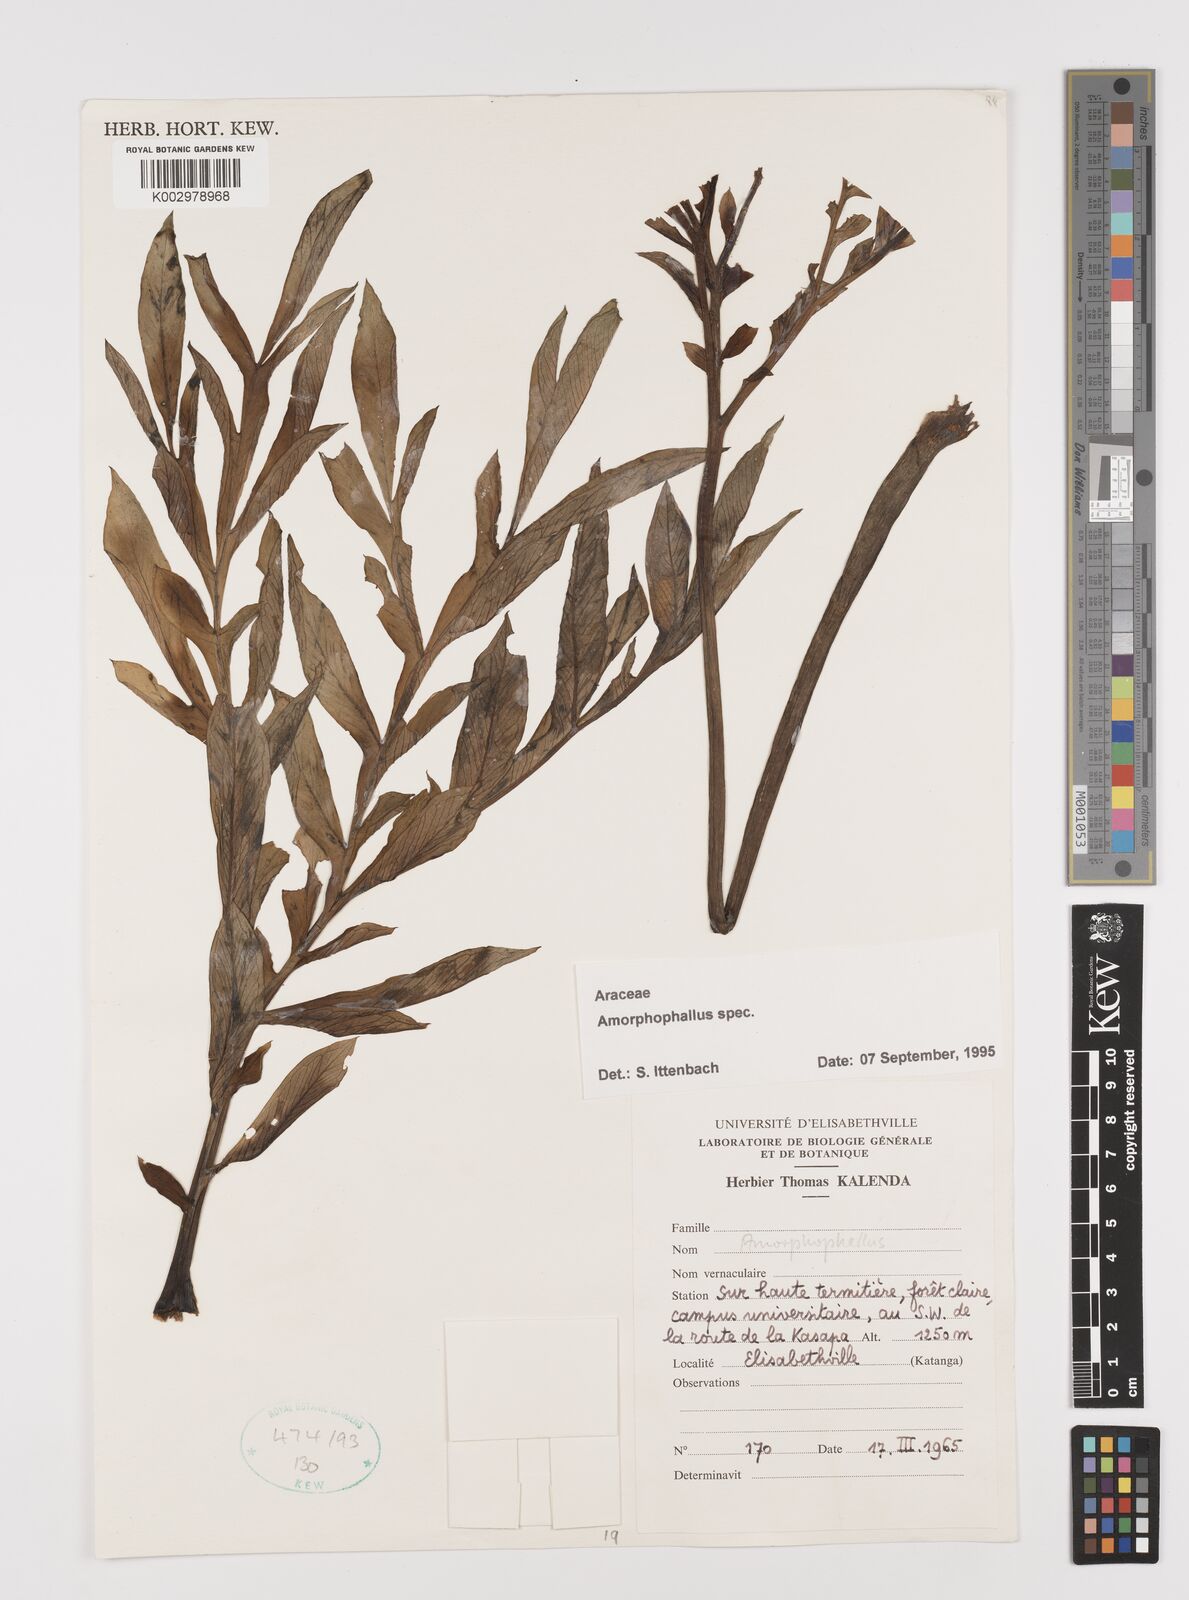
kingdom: Plantae
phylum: Tracheophyta
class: Liliopsida
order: Alismatales
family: Araceae
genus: Amorphophallus
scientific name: Amorphophallus
